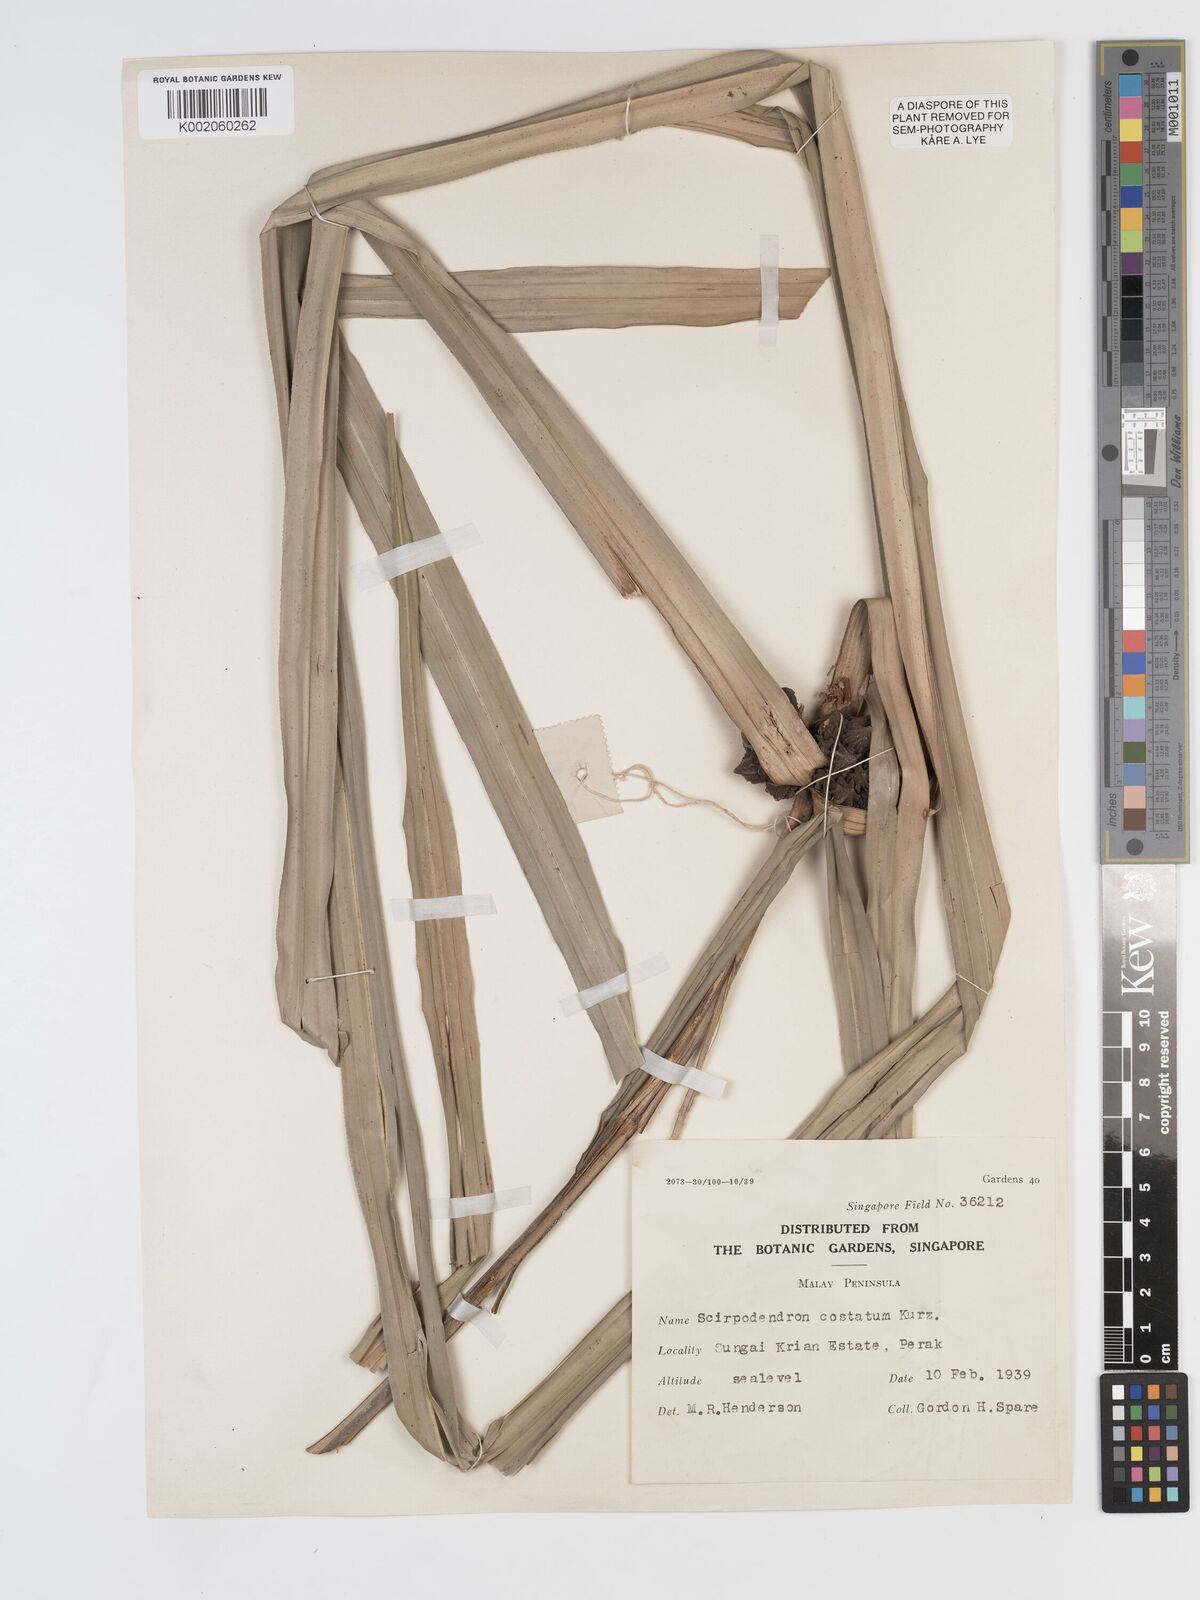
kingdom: Plantae
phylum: Tracheophyta
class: Liliopsida
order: Poales
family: Cyperaceae
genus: Scirpodendron
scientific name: Scirpodendron ghaeri
